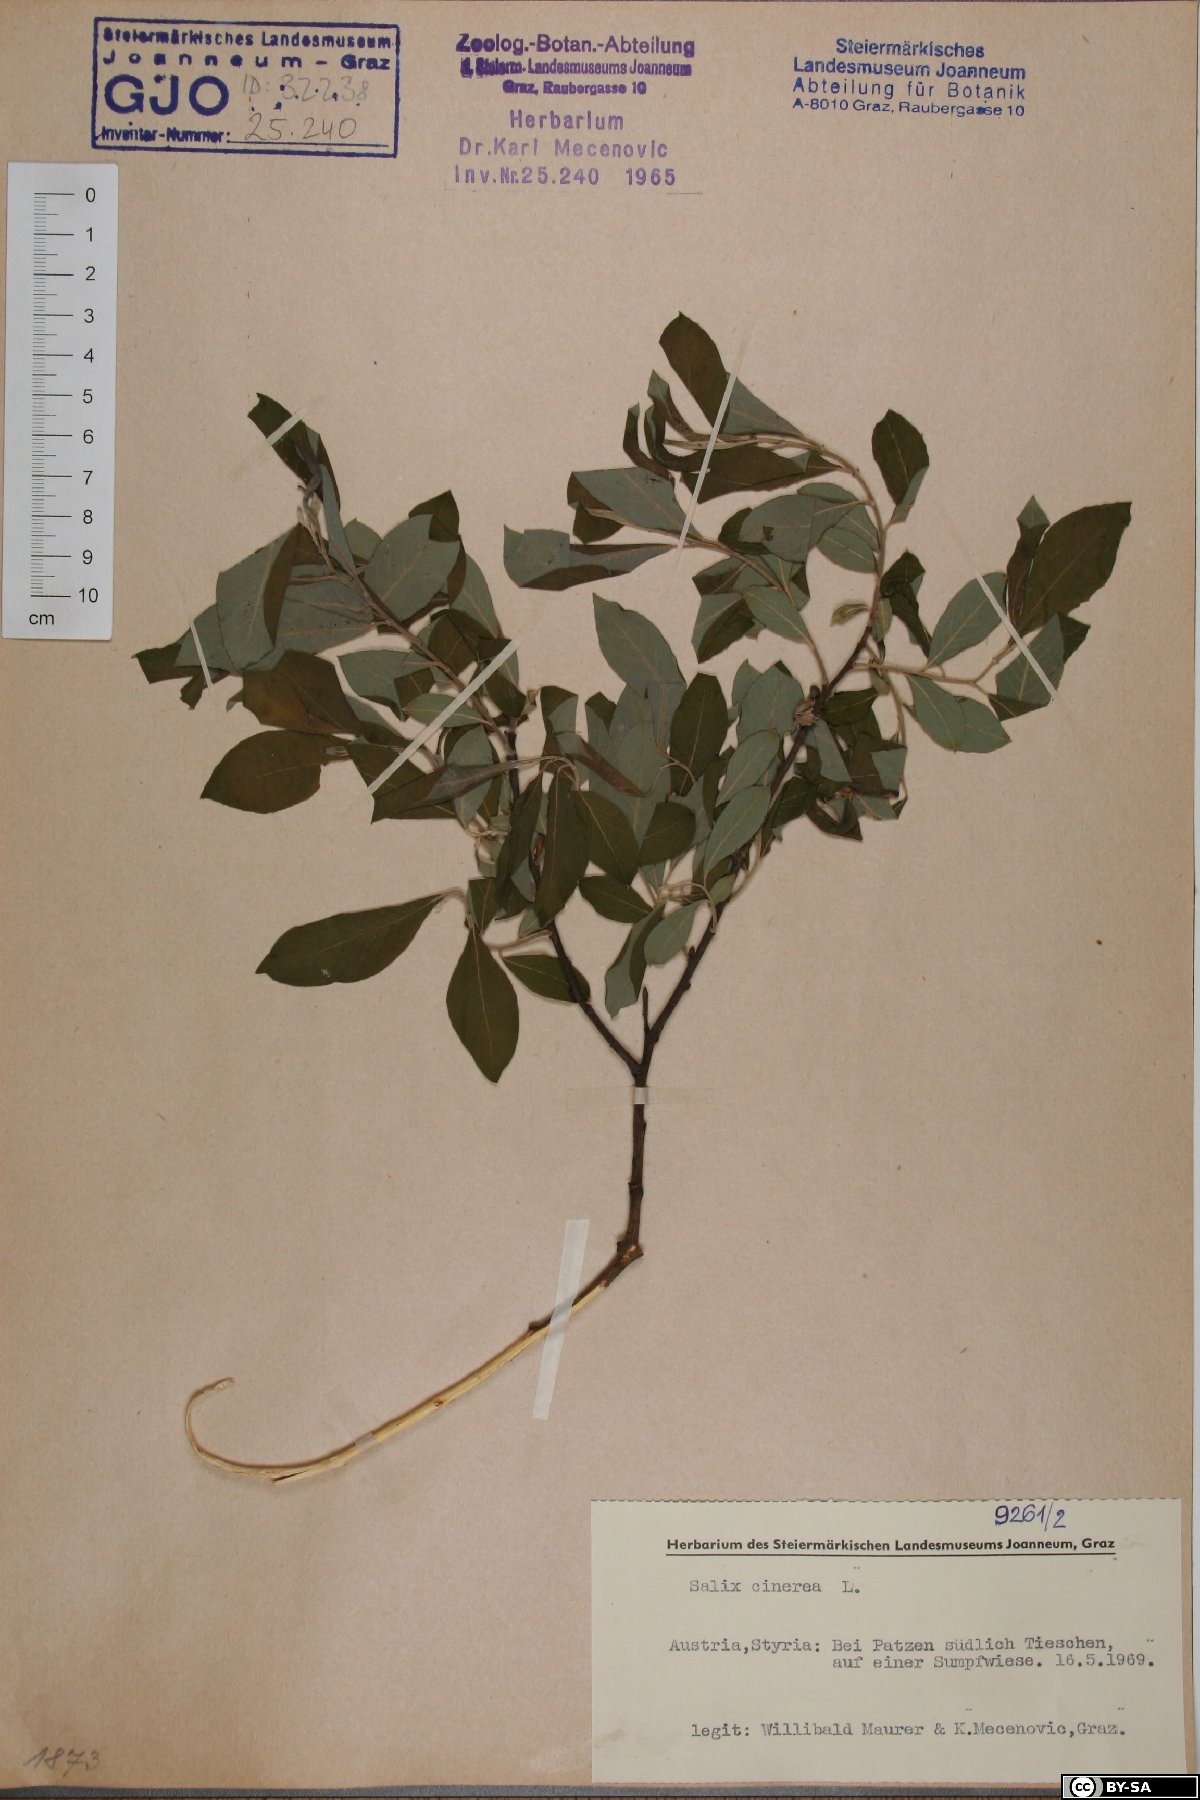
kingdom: Plantae
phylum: Tracheophyta
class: Magnoliopsida
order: Malpighiales
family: Salicaceae
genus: Salix
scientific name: Salix cinerea
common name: Common sallow
